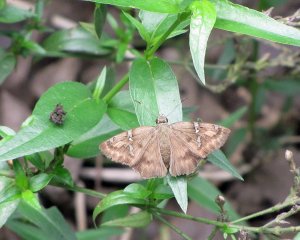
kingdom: Animalia
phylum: Arthropoda
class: Insecta
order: Lepidoptera
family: Hesperiidae
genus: Cabares
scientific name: Cabares potrillo
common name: Potrillo Skipper
